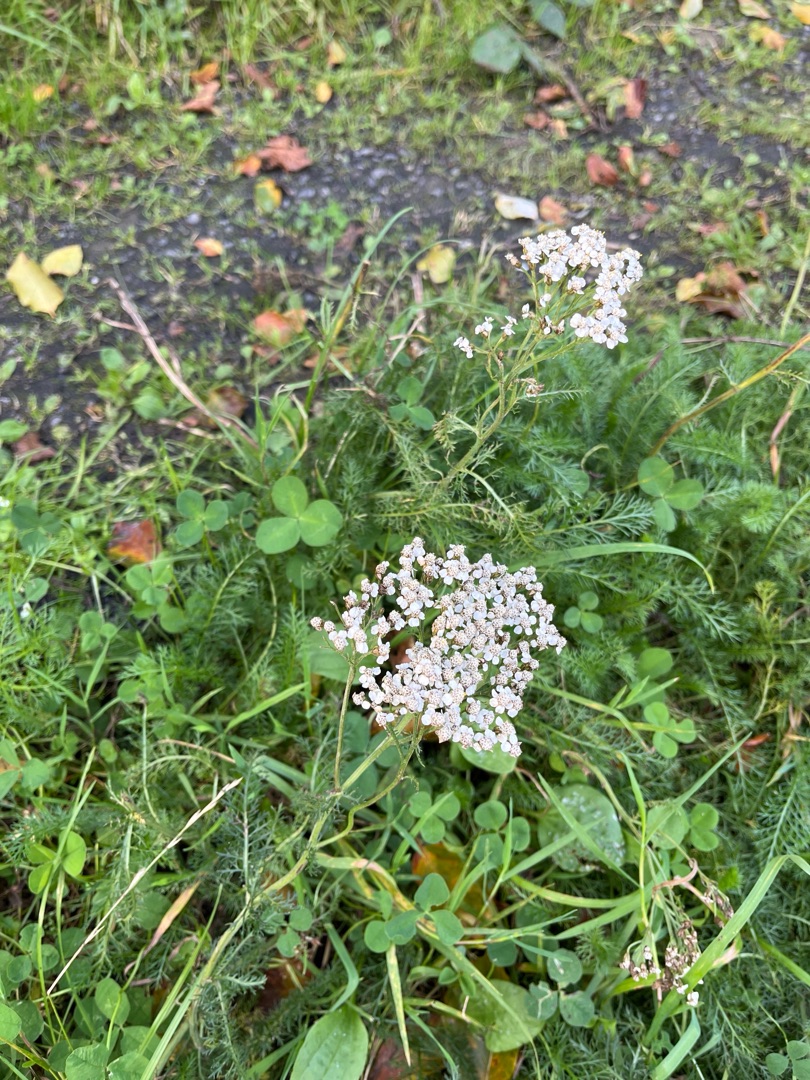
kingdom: Plantae
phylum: Tracheophyta
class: Magnoliopsida
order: Asterales
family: Asteraceae
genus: Achillea
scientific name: Achillea millefolium
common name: Almindelig røllike
